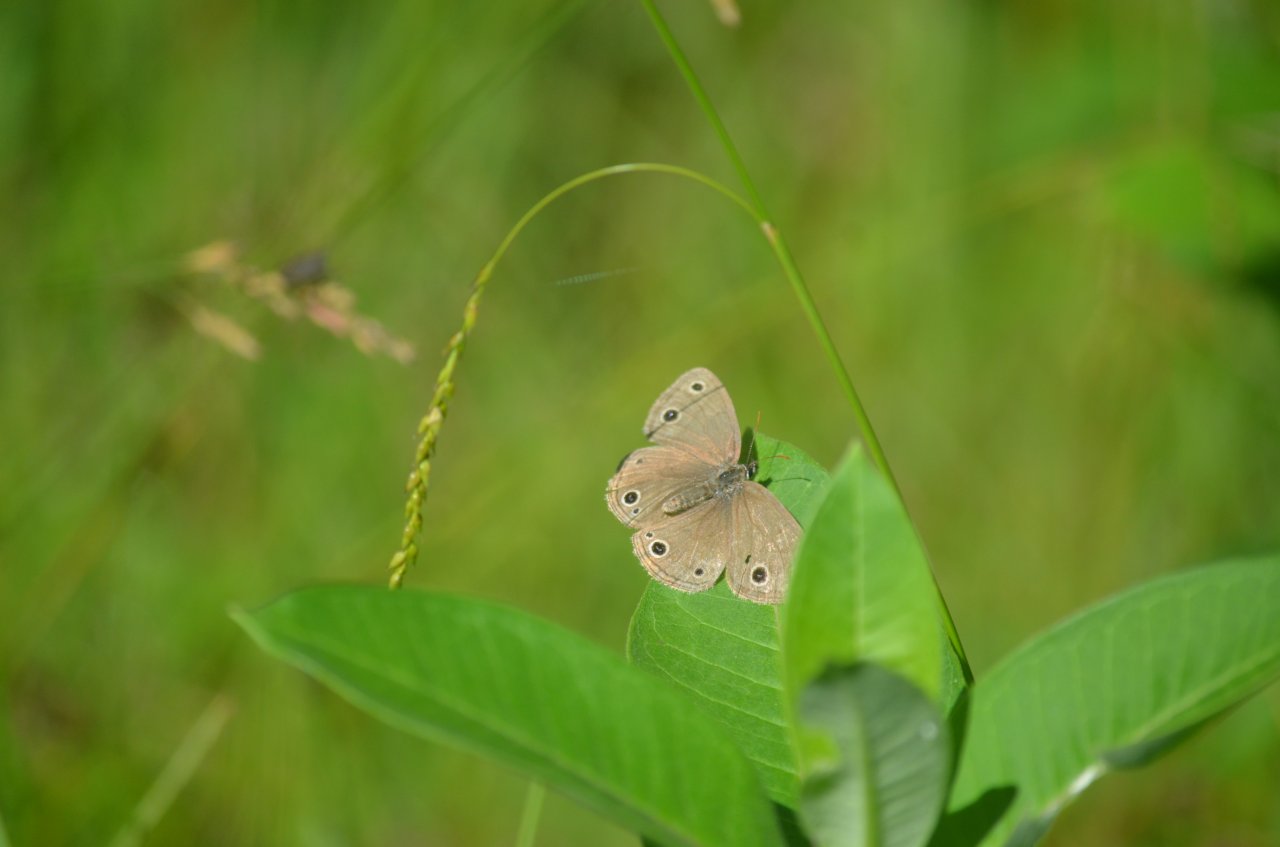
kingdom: Animalia
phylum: Arthropoda
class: Insecta
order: Lepidoptera
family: Nymphalidae
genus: Euptychia
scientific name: Euptychia cymela
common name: Little Wood Satyr
